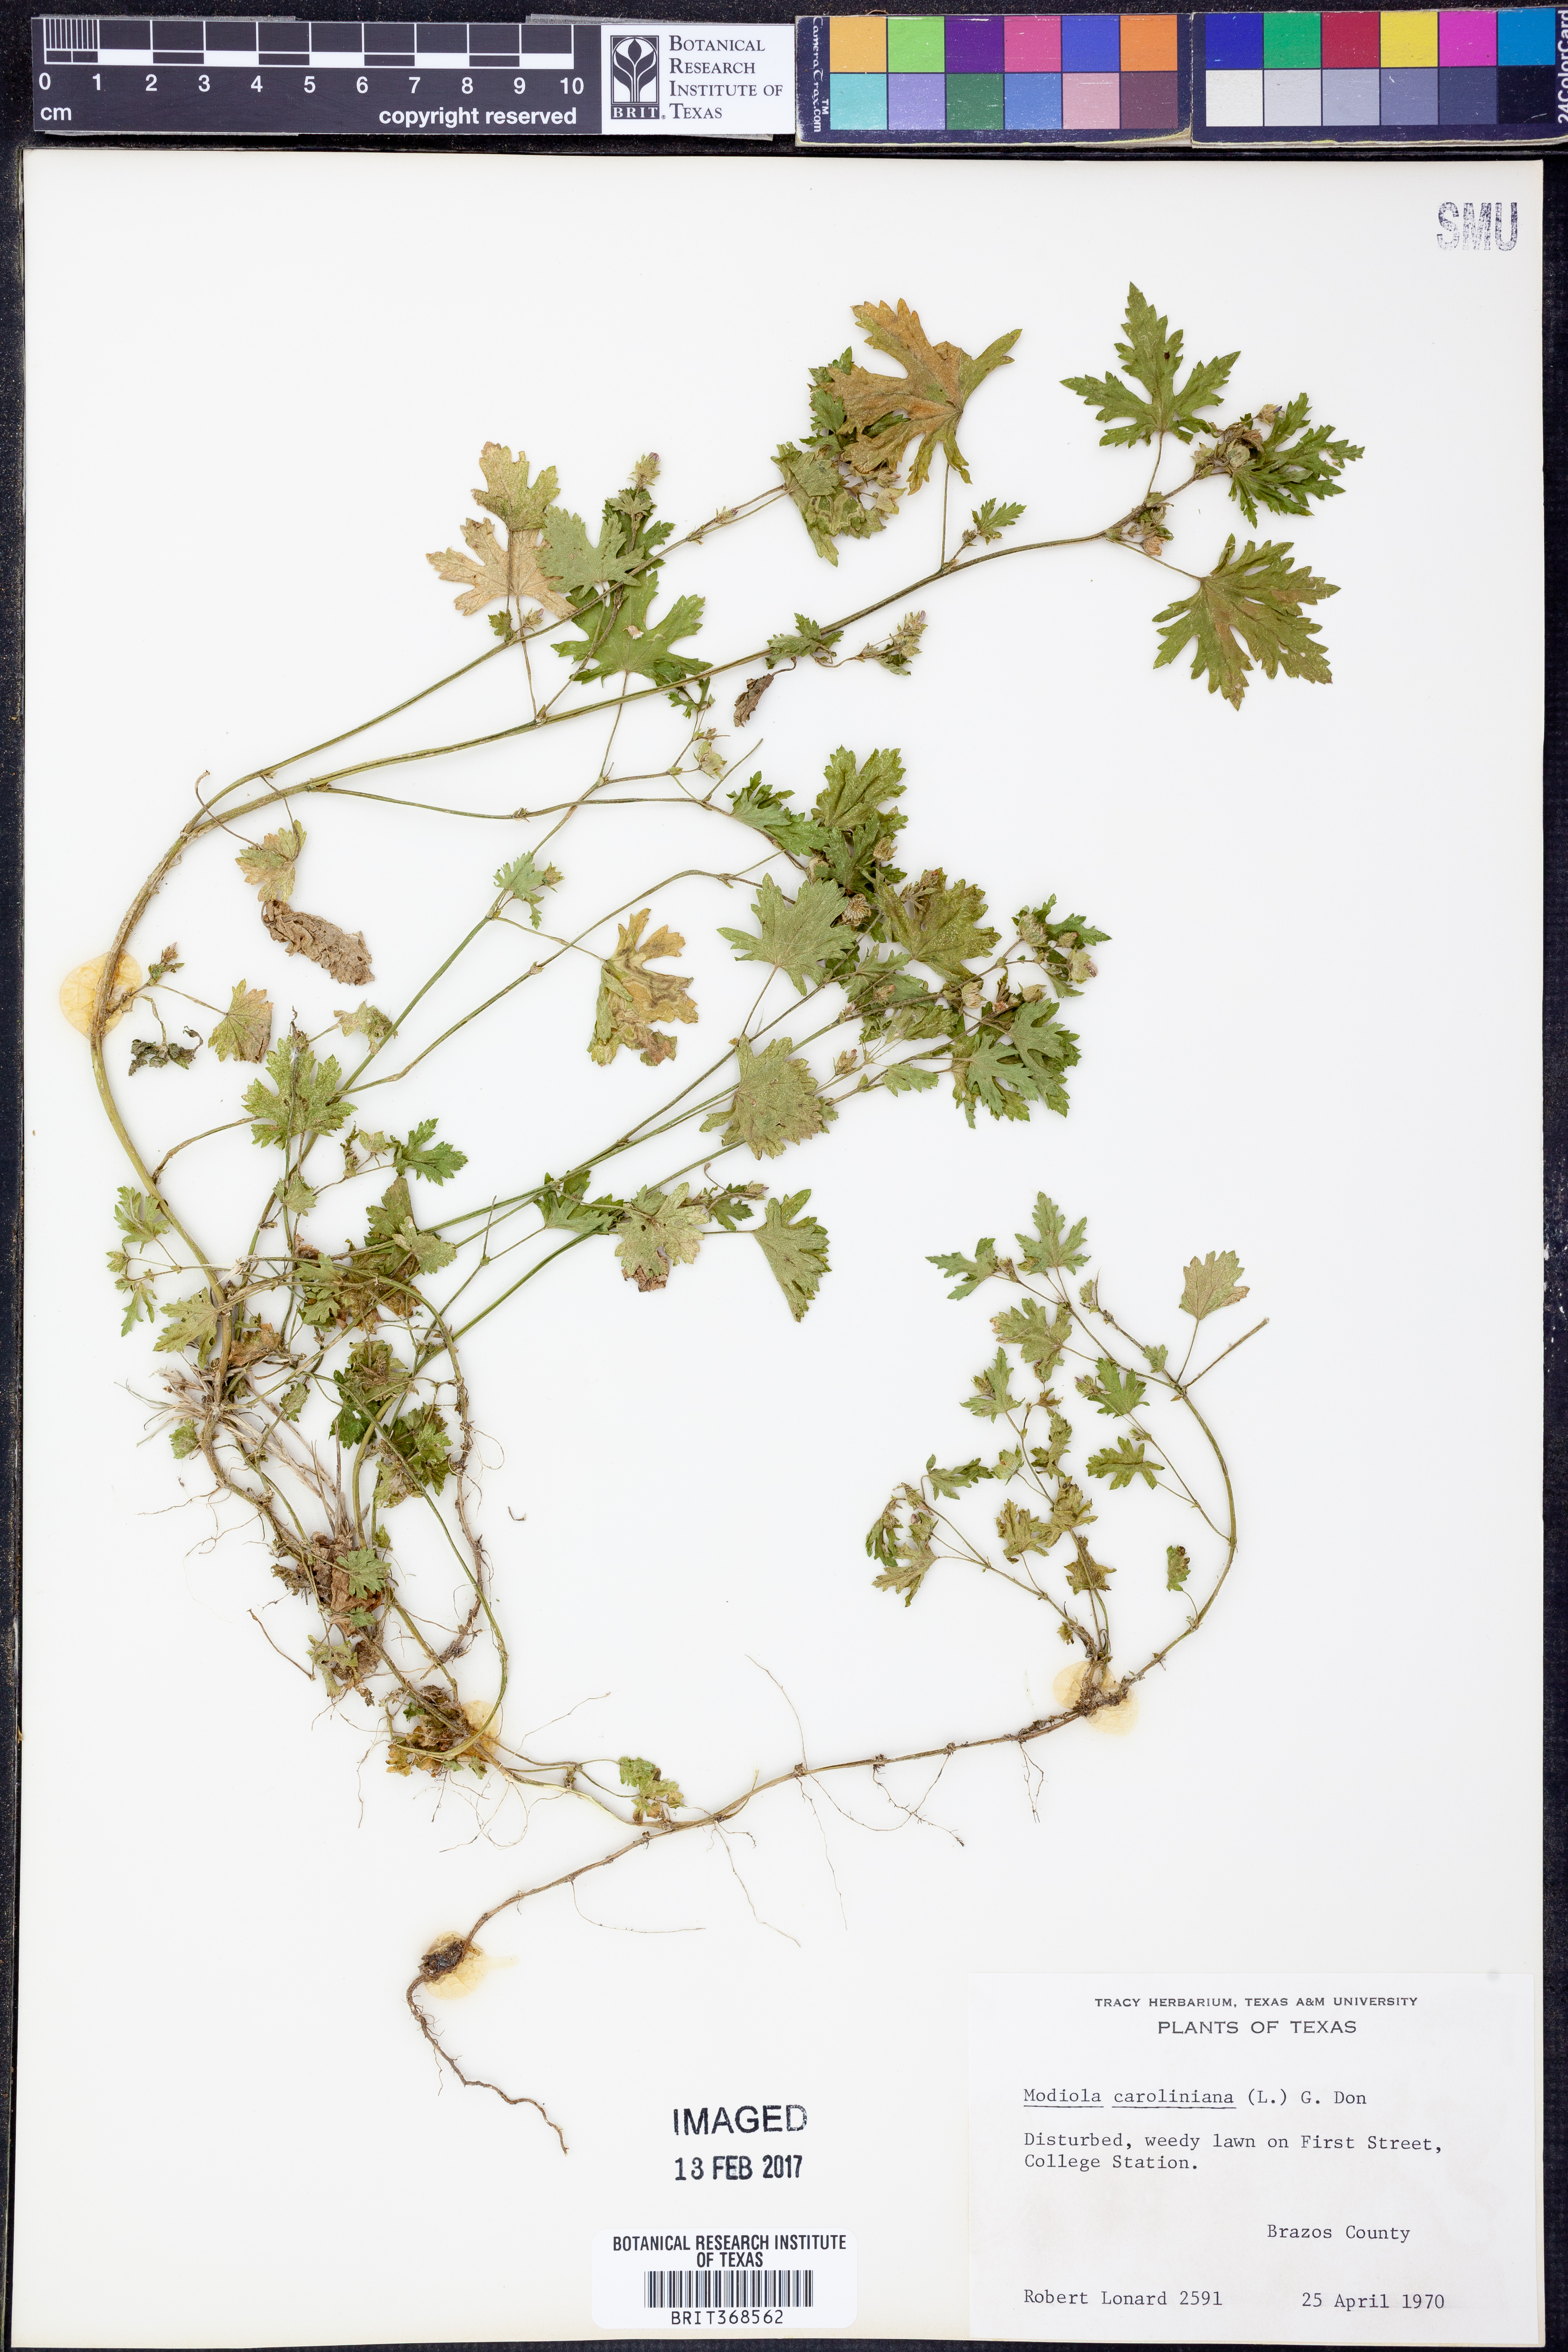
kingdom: Plantae
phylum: Tracheophyta
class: Magnoliopsida
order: Malvales
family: Malvaceae
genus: Modiola
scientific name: Modiola caroliniana
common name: Carolina bristlemallow
